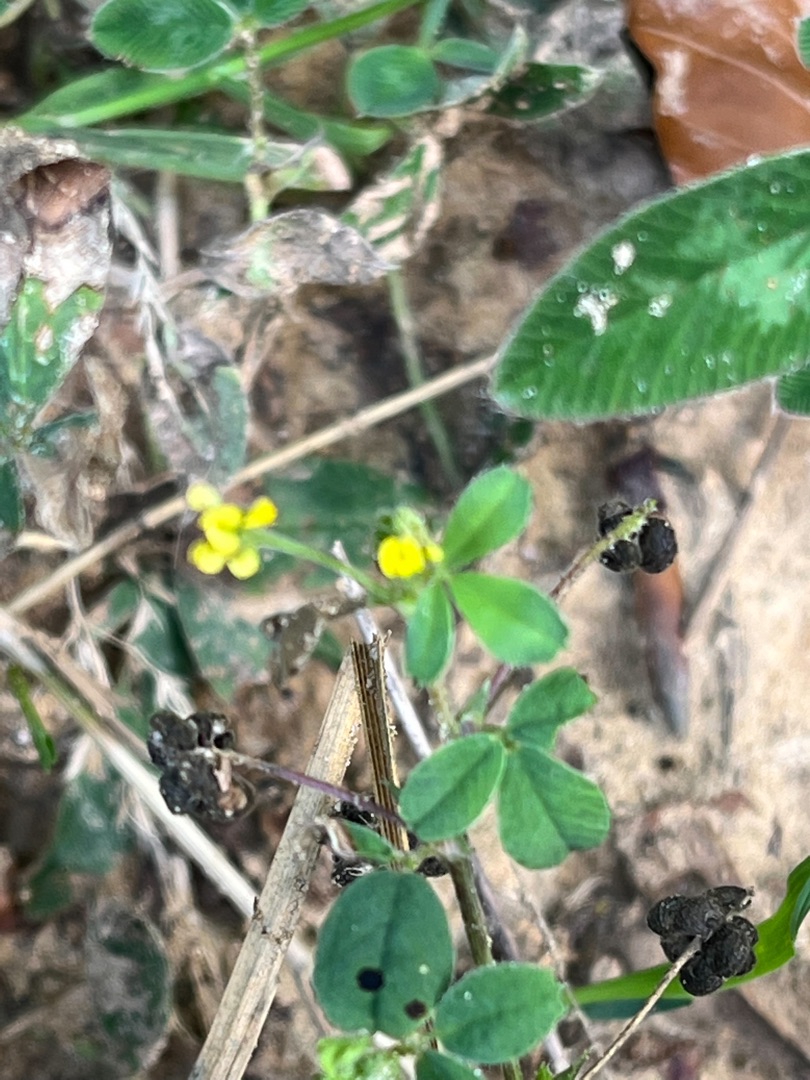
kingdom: Plantae
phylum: Tracheophyta
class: Magnoliopsida
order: Fabales
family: Fabaceae
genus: Medicago
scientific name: Medicago lupulina
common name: Humle-sneglebælg
